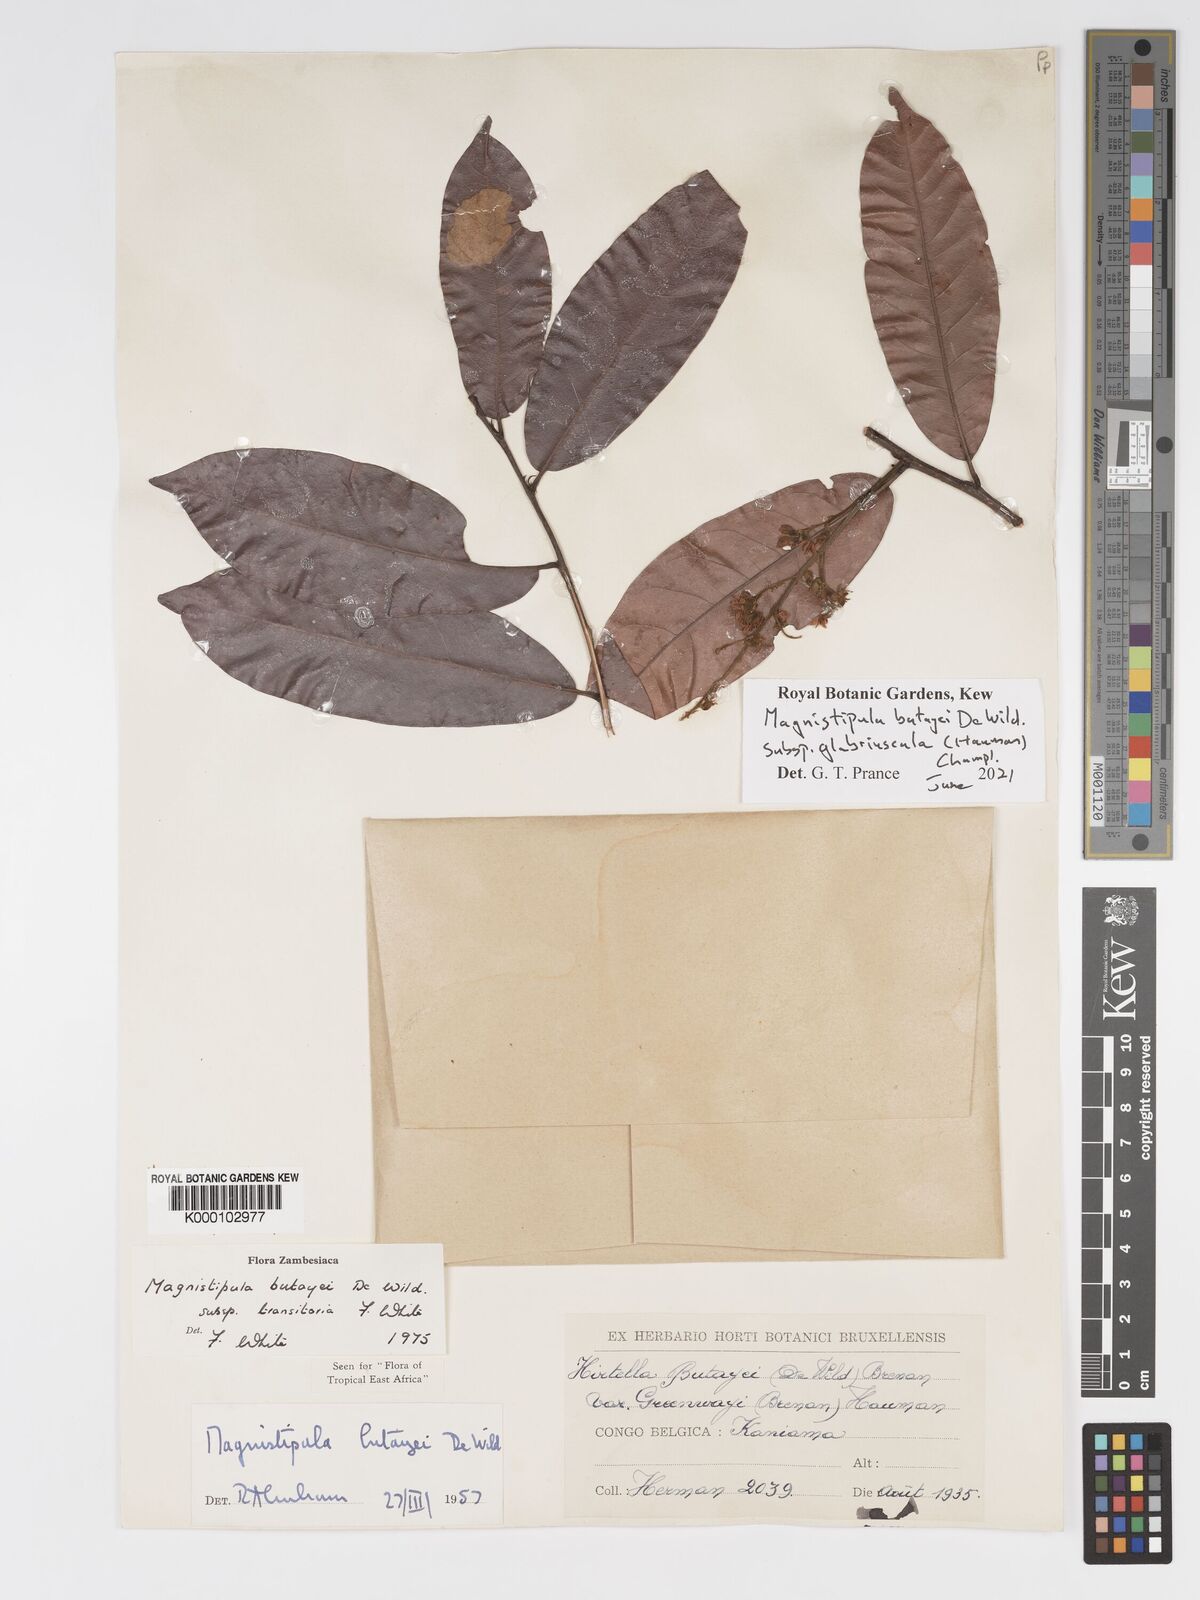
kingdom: Plantae
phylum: Tracheophyta
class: Magnoliopsida
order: Malpighiales
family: Chrysobalanaceae
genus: Magnistipula
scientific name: Magnistipula butayei
